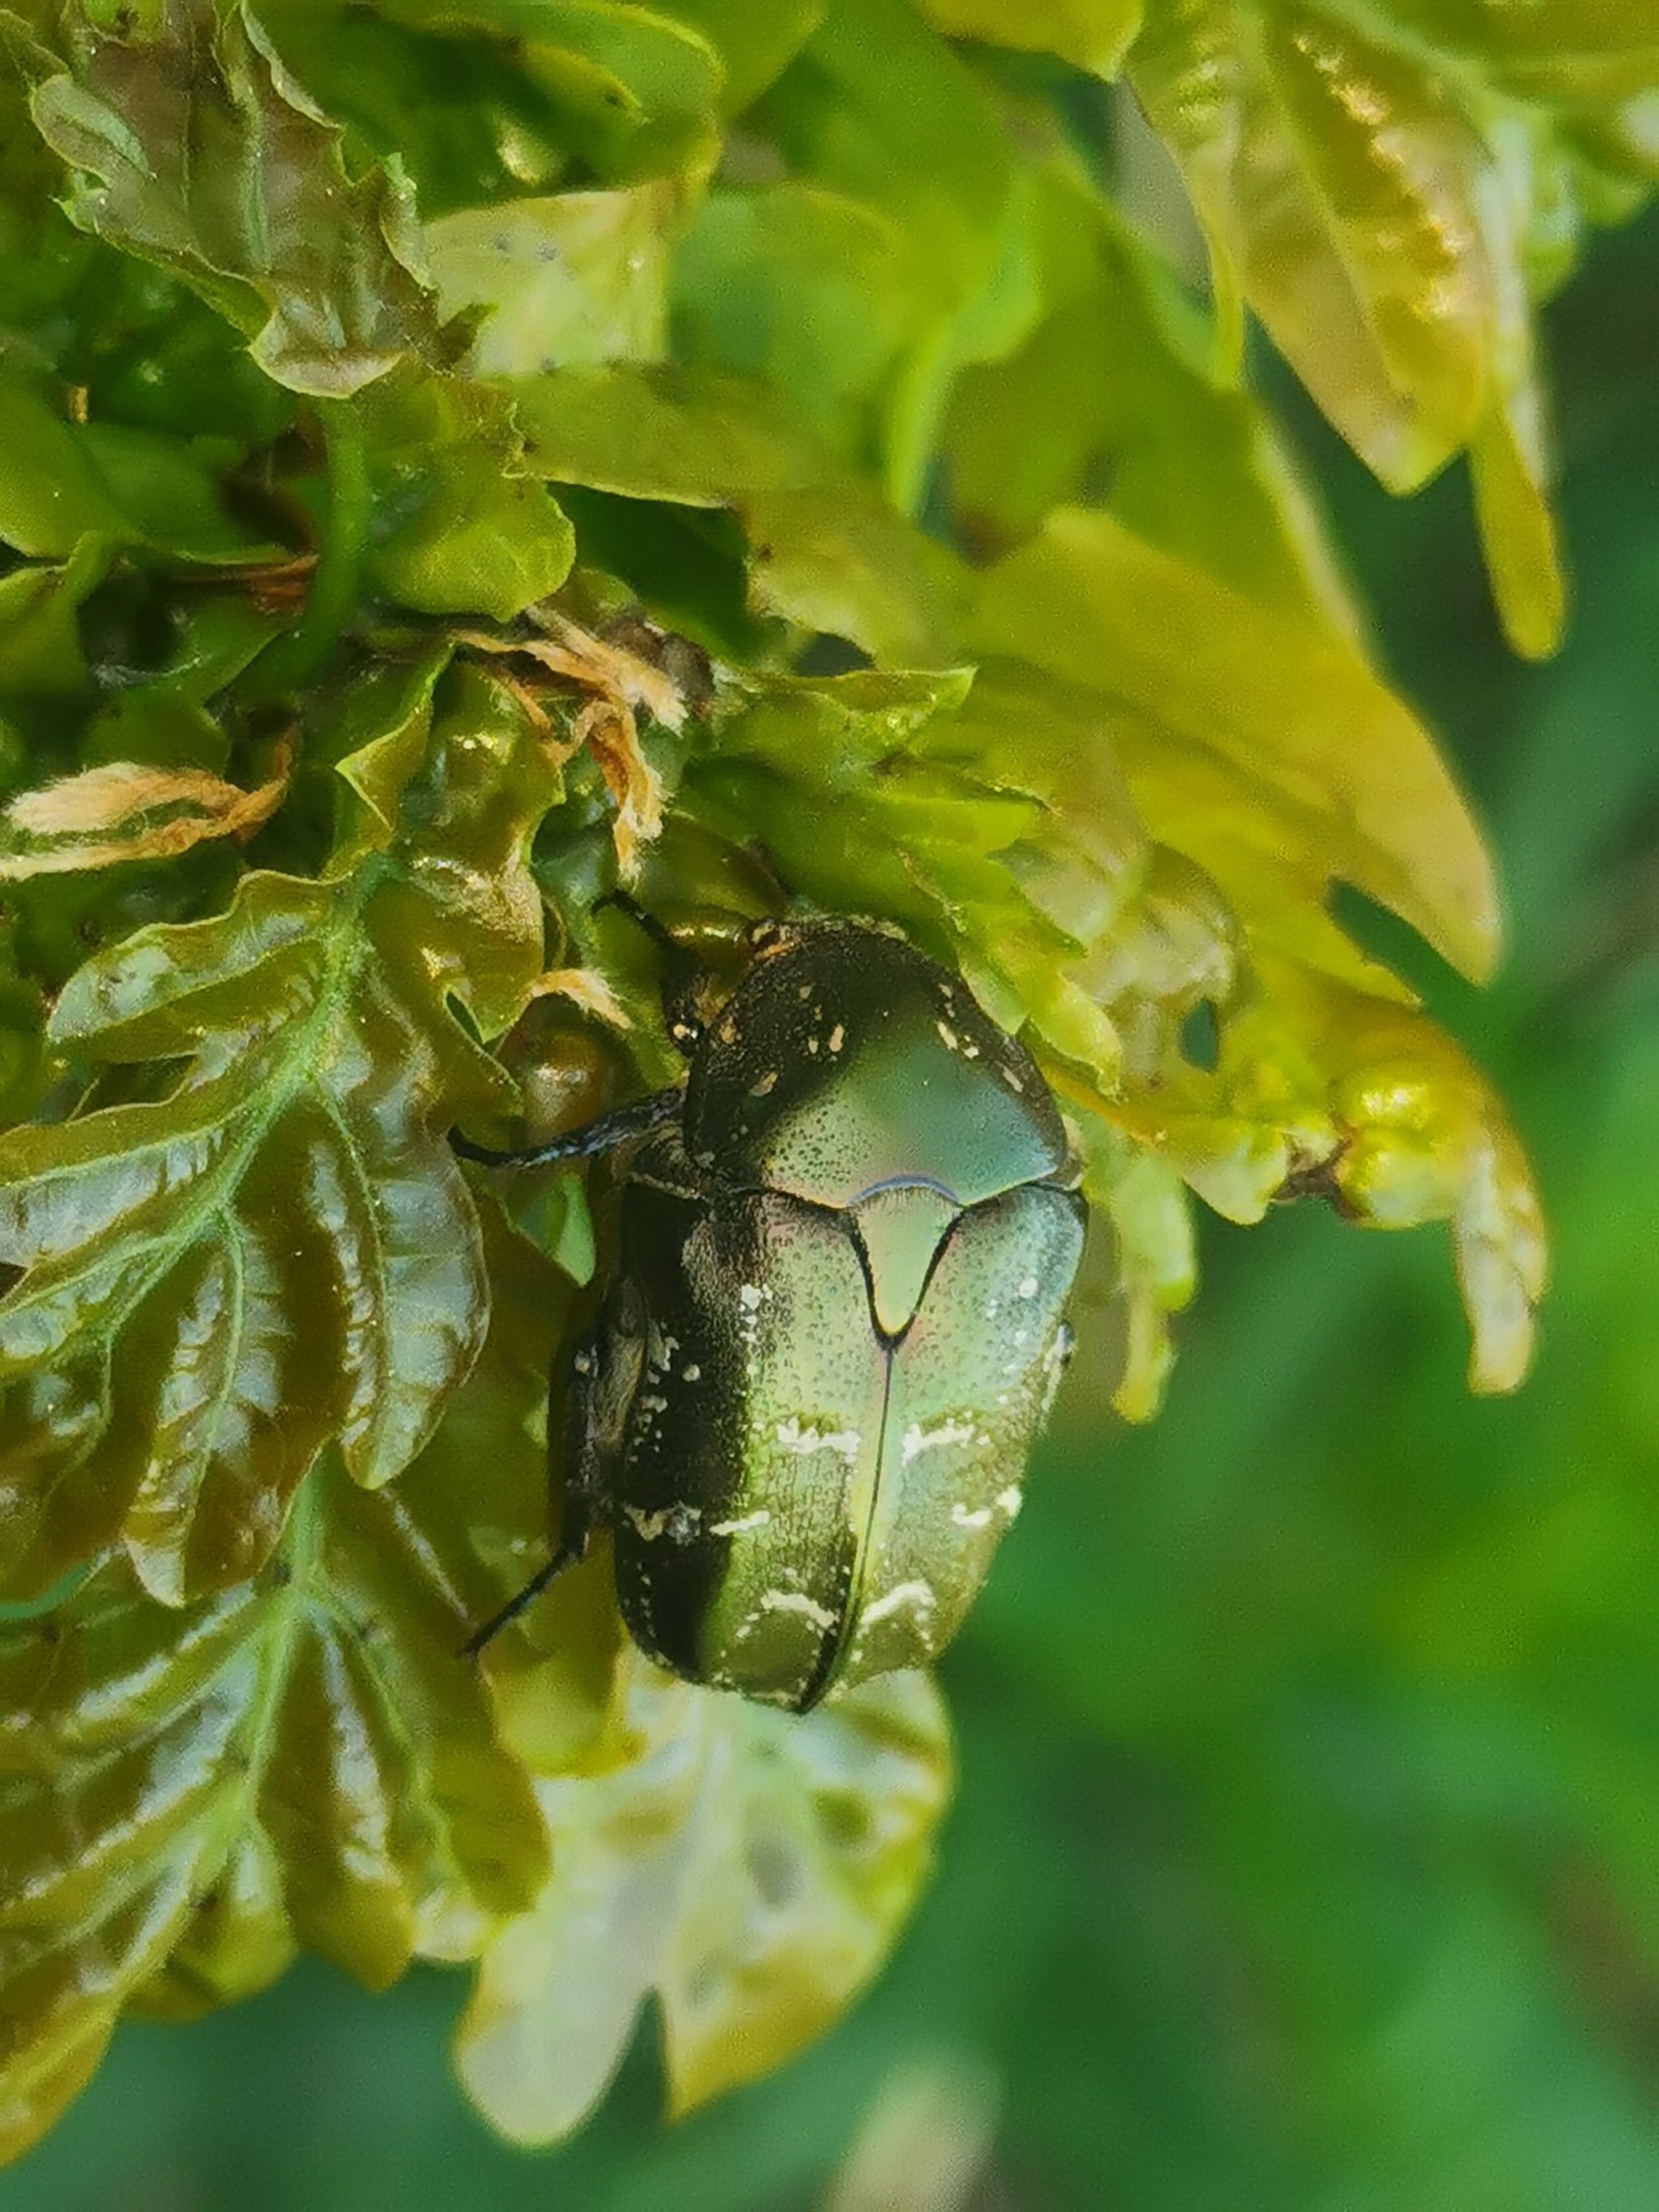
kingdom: Animalia
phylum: Arthropoda
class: Insecta
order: Coleoptera
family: Scarabaeidae
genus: Protaetia
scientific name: Protaetia cuprea
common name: Kobberguldbasse
